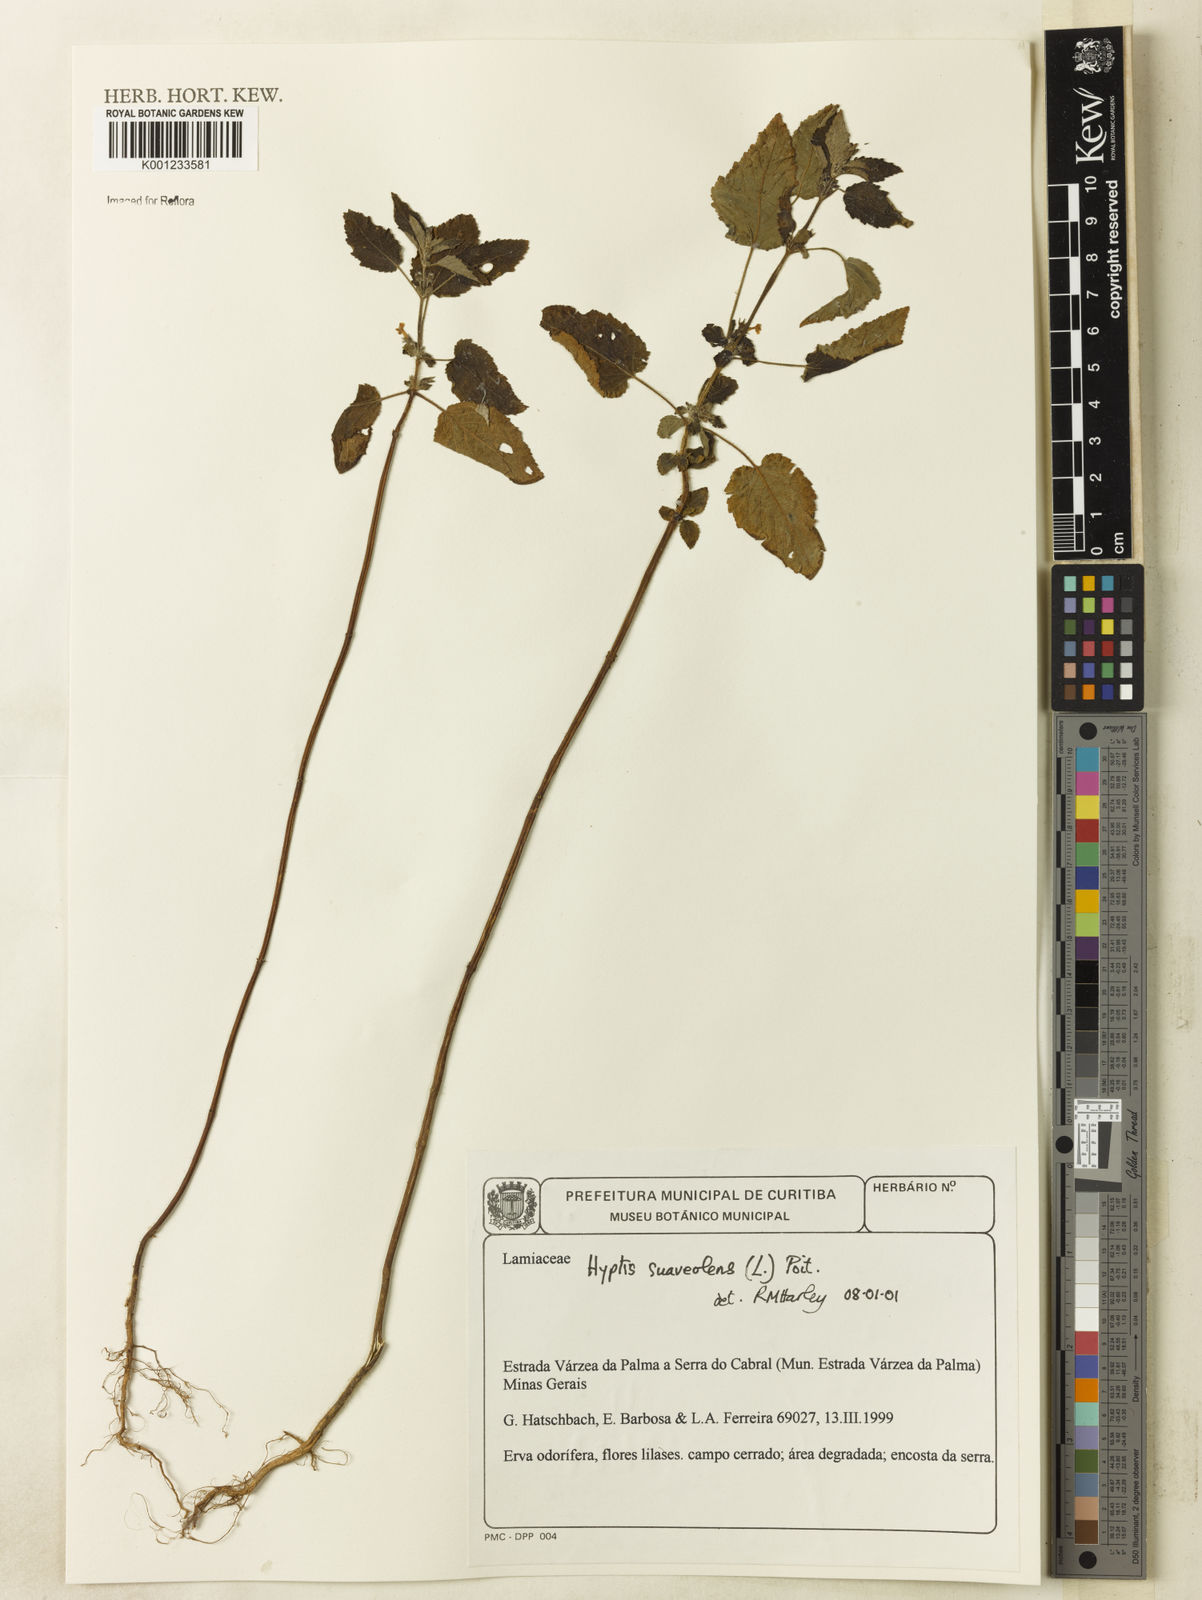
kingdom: Plantae
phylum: Tracheophyta
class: Magnoliopsida
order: Lamiales
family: Lamiaceae
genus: Mesosphaerum
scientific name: Mesosphaerum suaveolens
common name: Pignut
